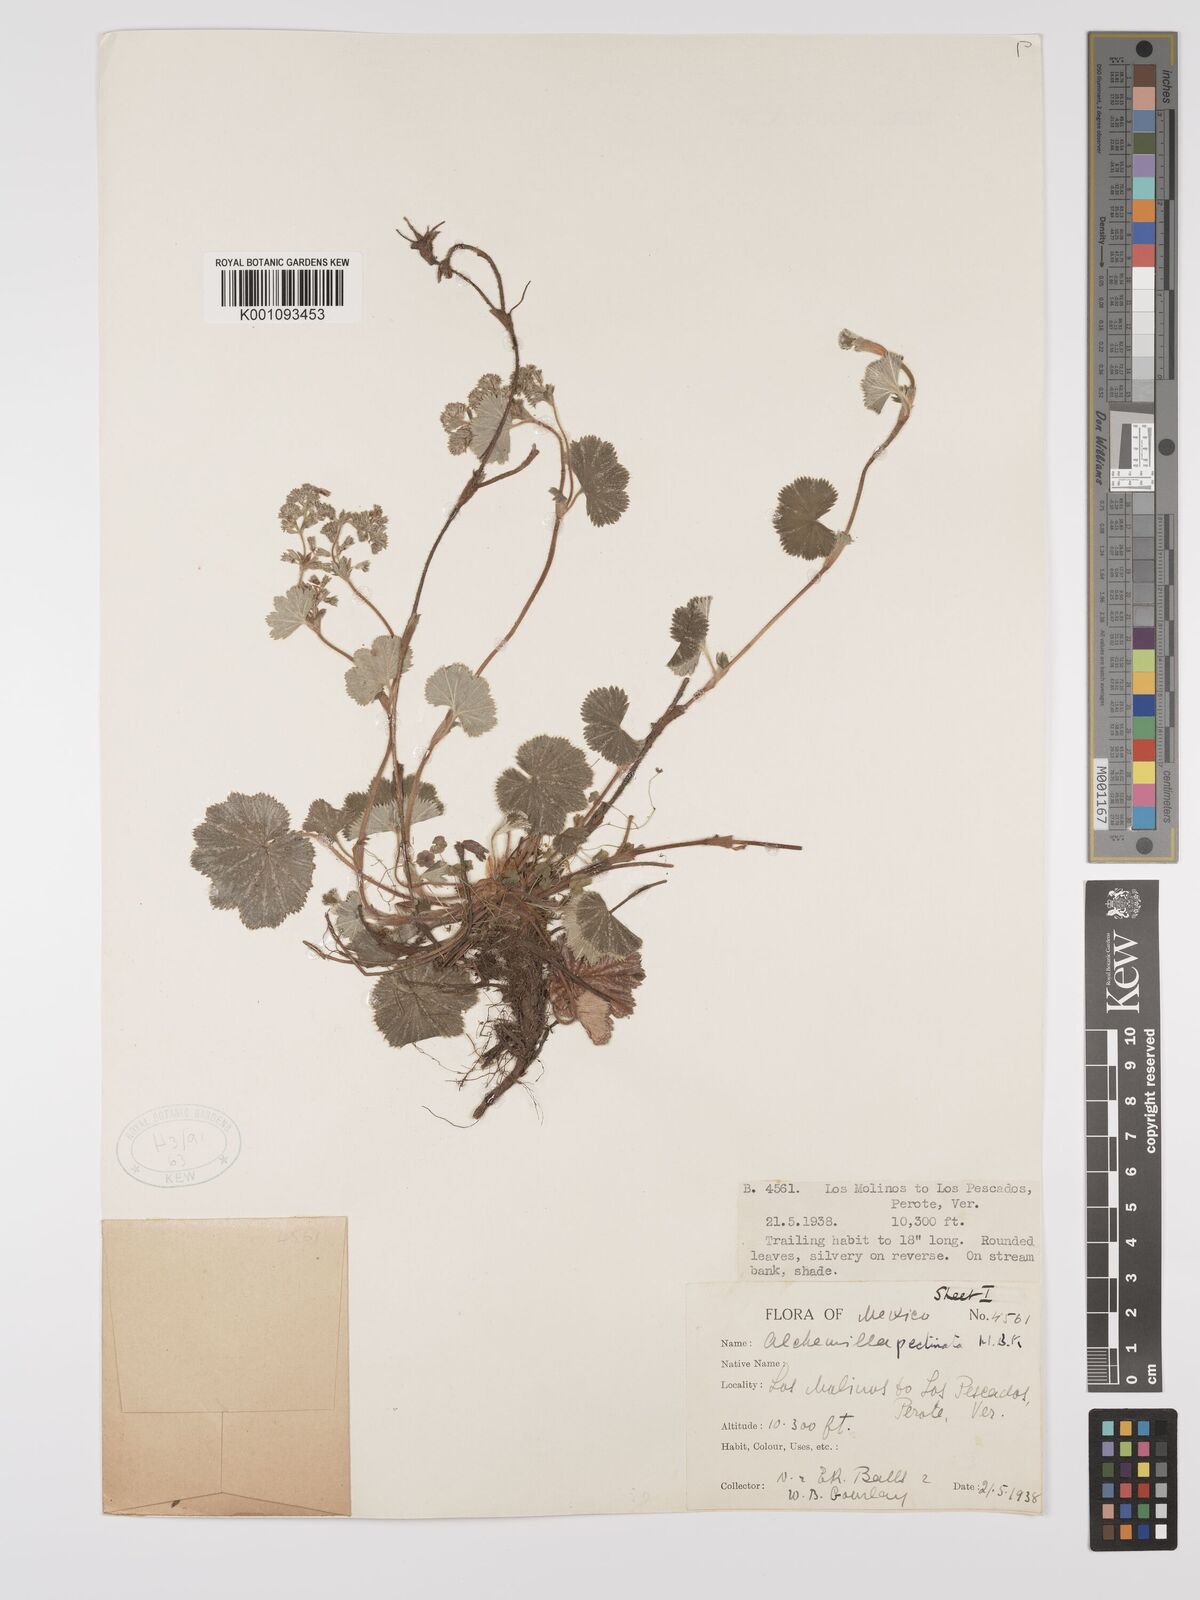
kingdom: Plantae
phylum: Tracheophyta
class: Magnoliopsida
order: Rosales
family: Rosaceae
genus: Lachemilla
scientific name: Lachemilla pectinata
